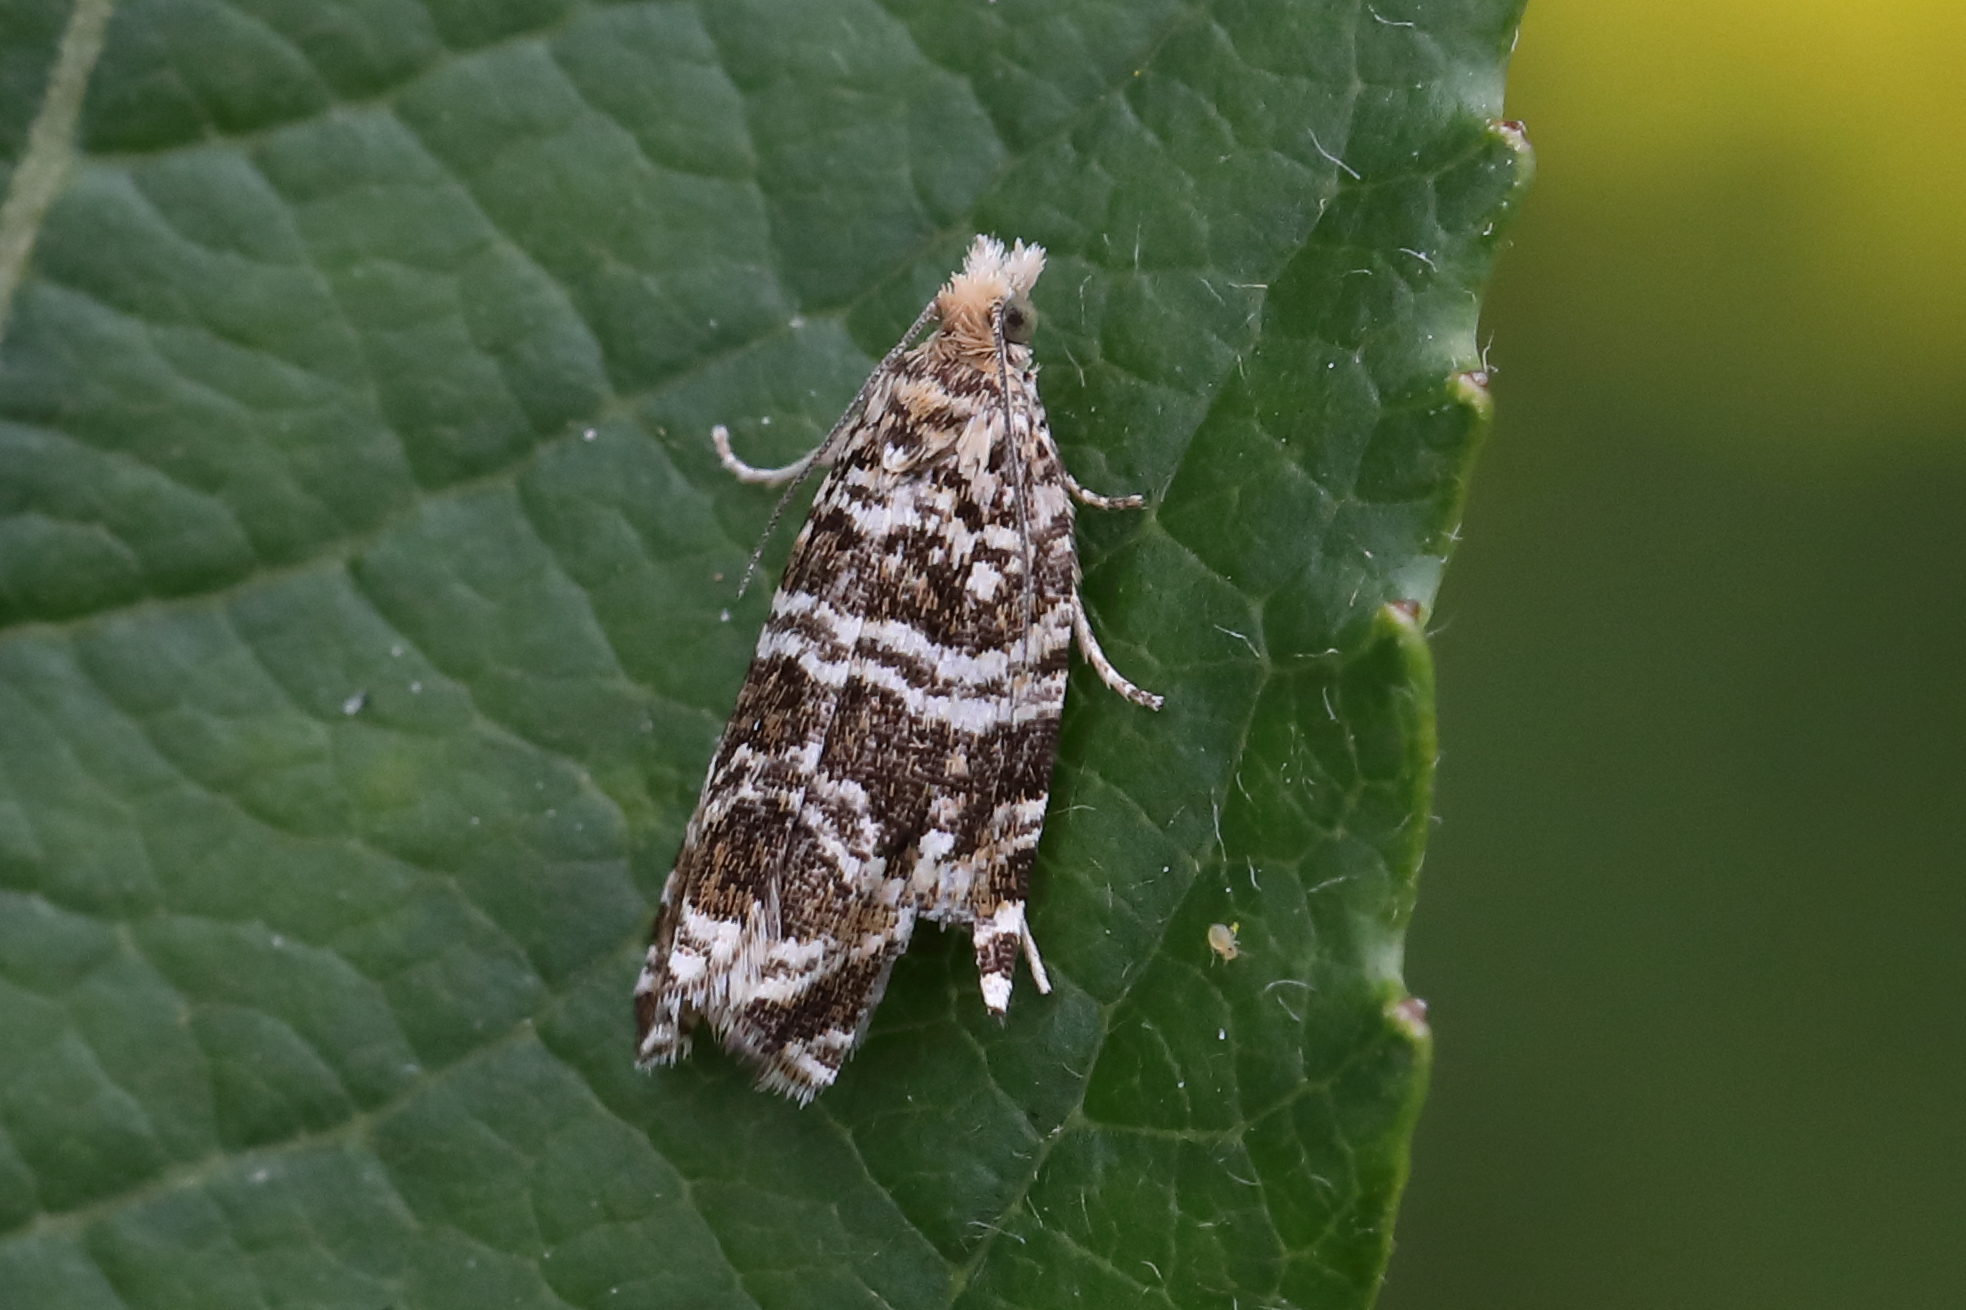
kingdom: Animalia
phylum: Arthropoda
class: Insecta
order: Lepidoptera
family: Tortricidae
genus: Syricoris
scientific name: Syricoris rivulana
